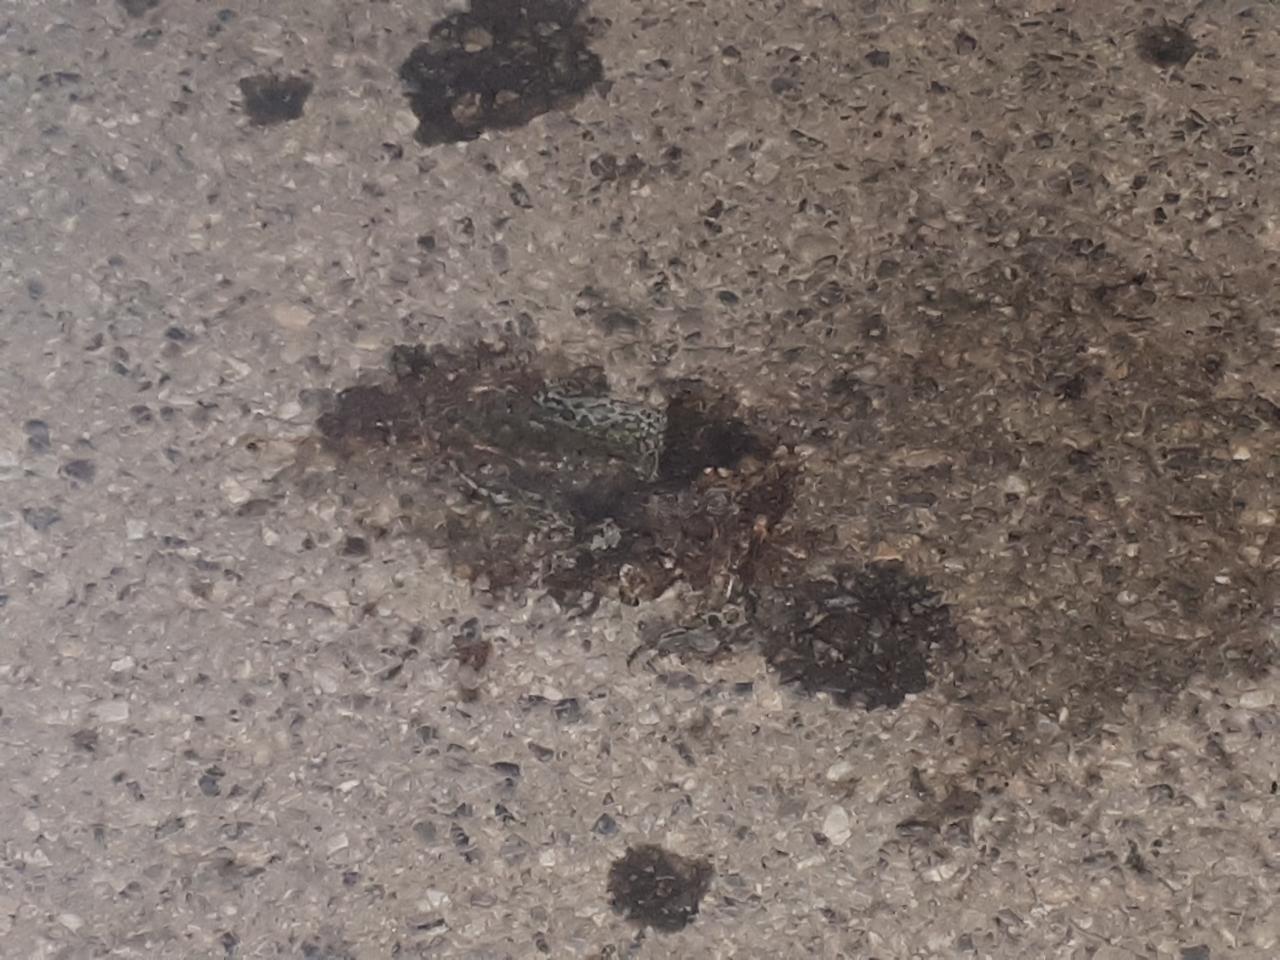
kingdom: Animalia
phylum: Chordata
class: Amphibia
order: Anura
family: Bufonidae
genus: Bufotes
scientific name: Bufotes viridis
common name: European green toad
